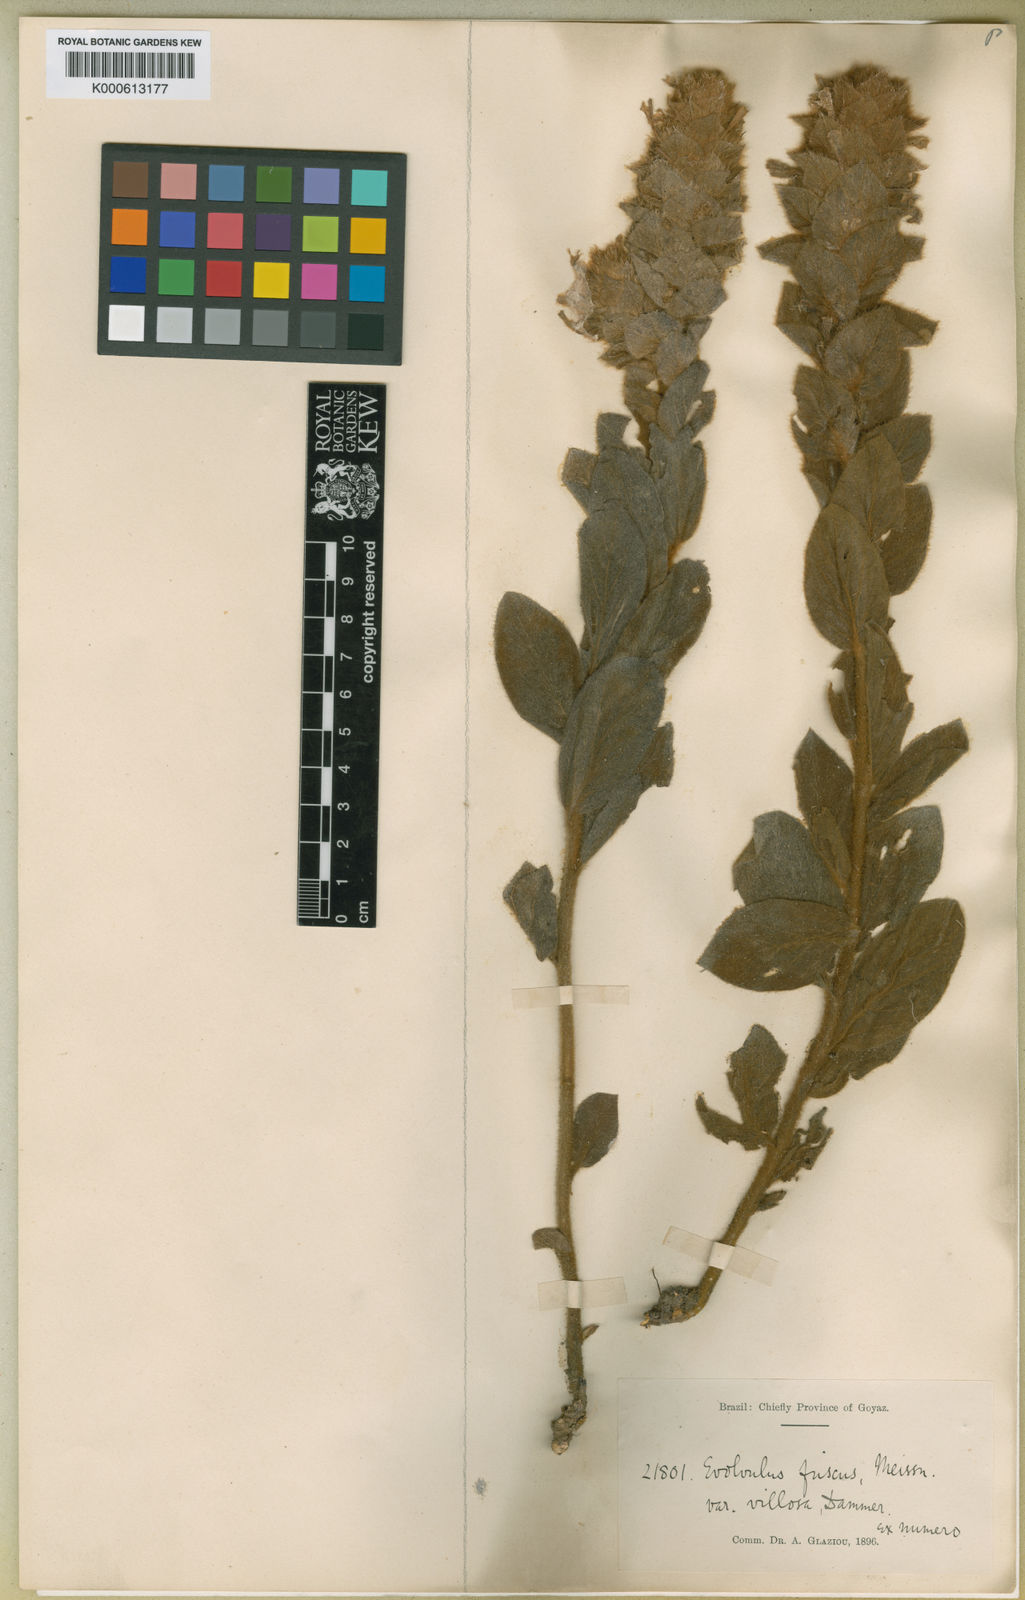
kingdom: Plantae
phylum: Tracheophyta
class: Magnoliopsida
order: Solanales
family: Convolvulaceae
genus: Evolvulus
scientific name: Evolvulus fuscus
